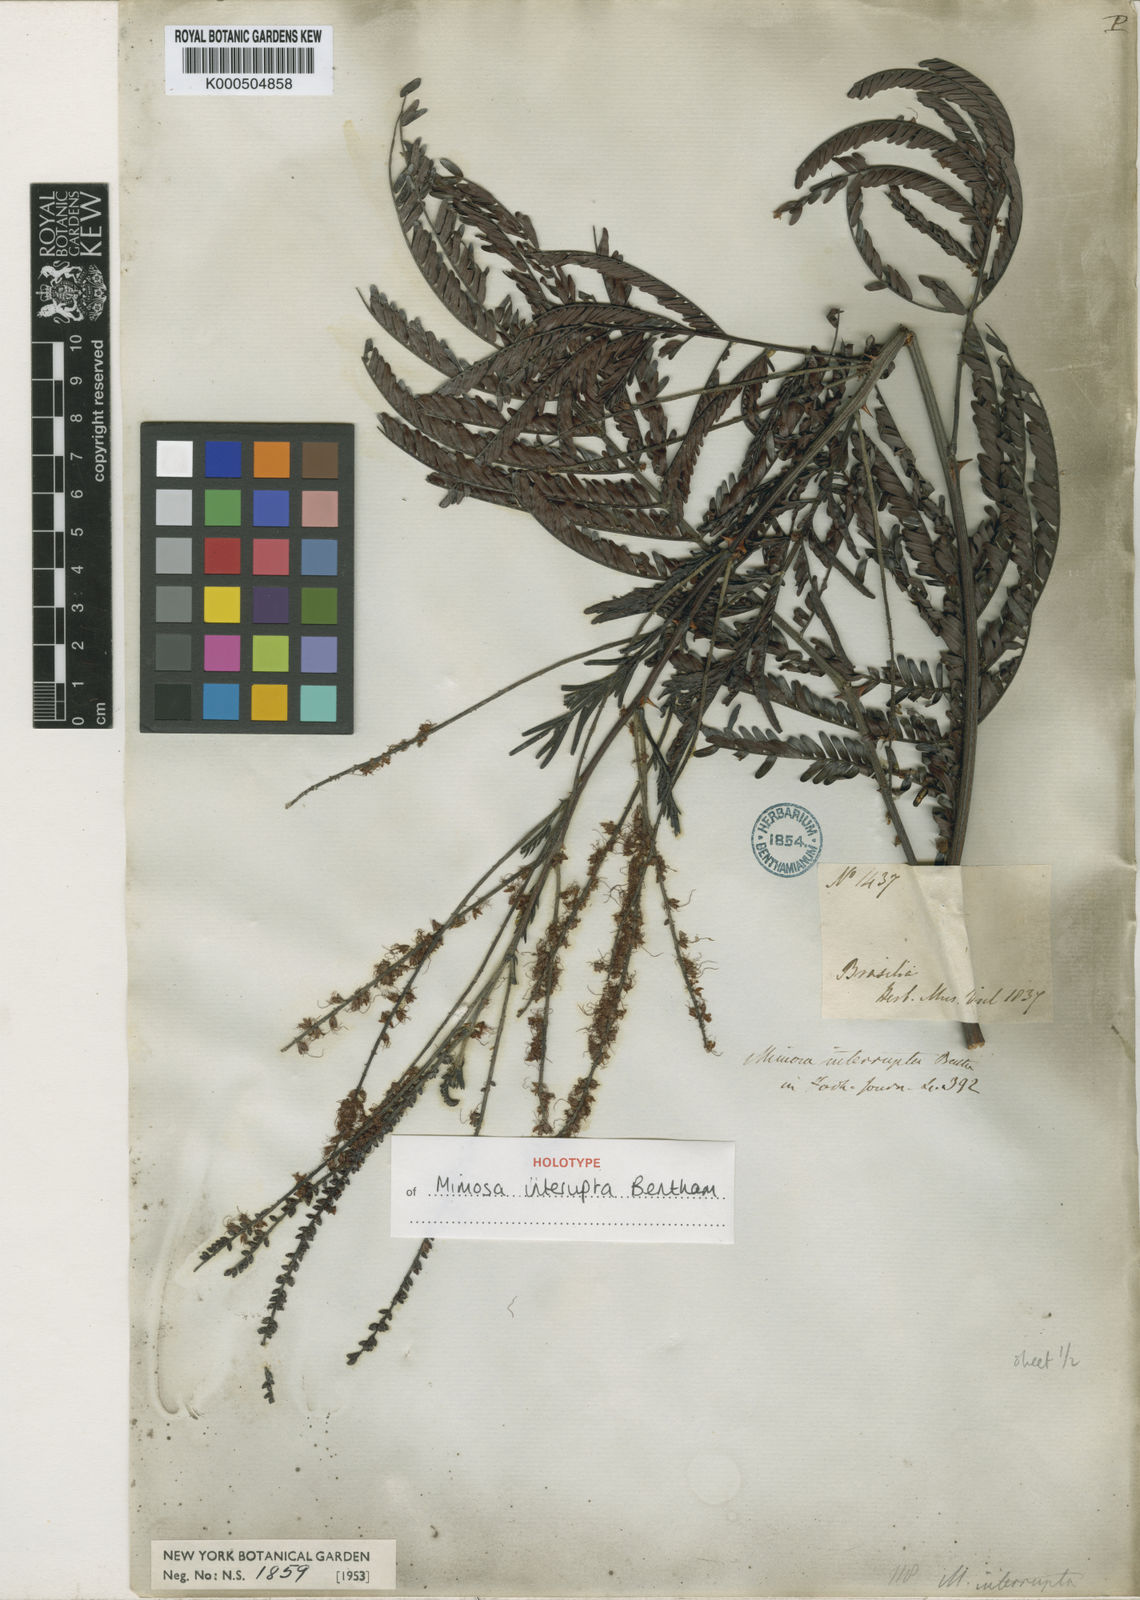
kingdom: Plantae
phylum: Tracheophyta
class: Magnoliopsida
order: Fabales
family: Fabaceae
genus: Mimosa
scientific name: Mimosa interrupta
